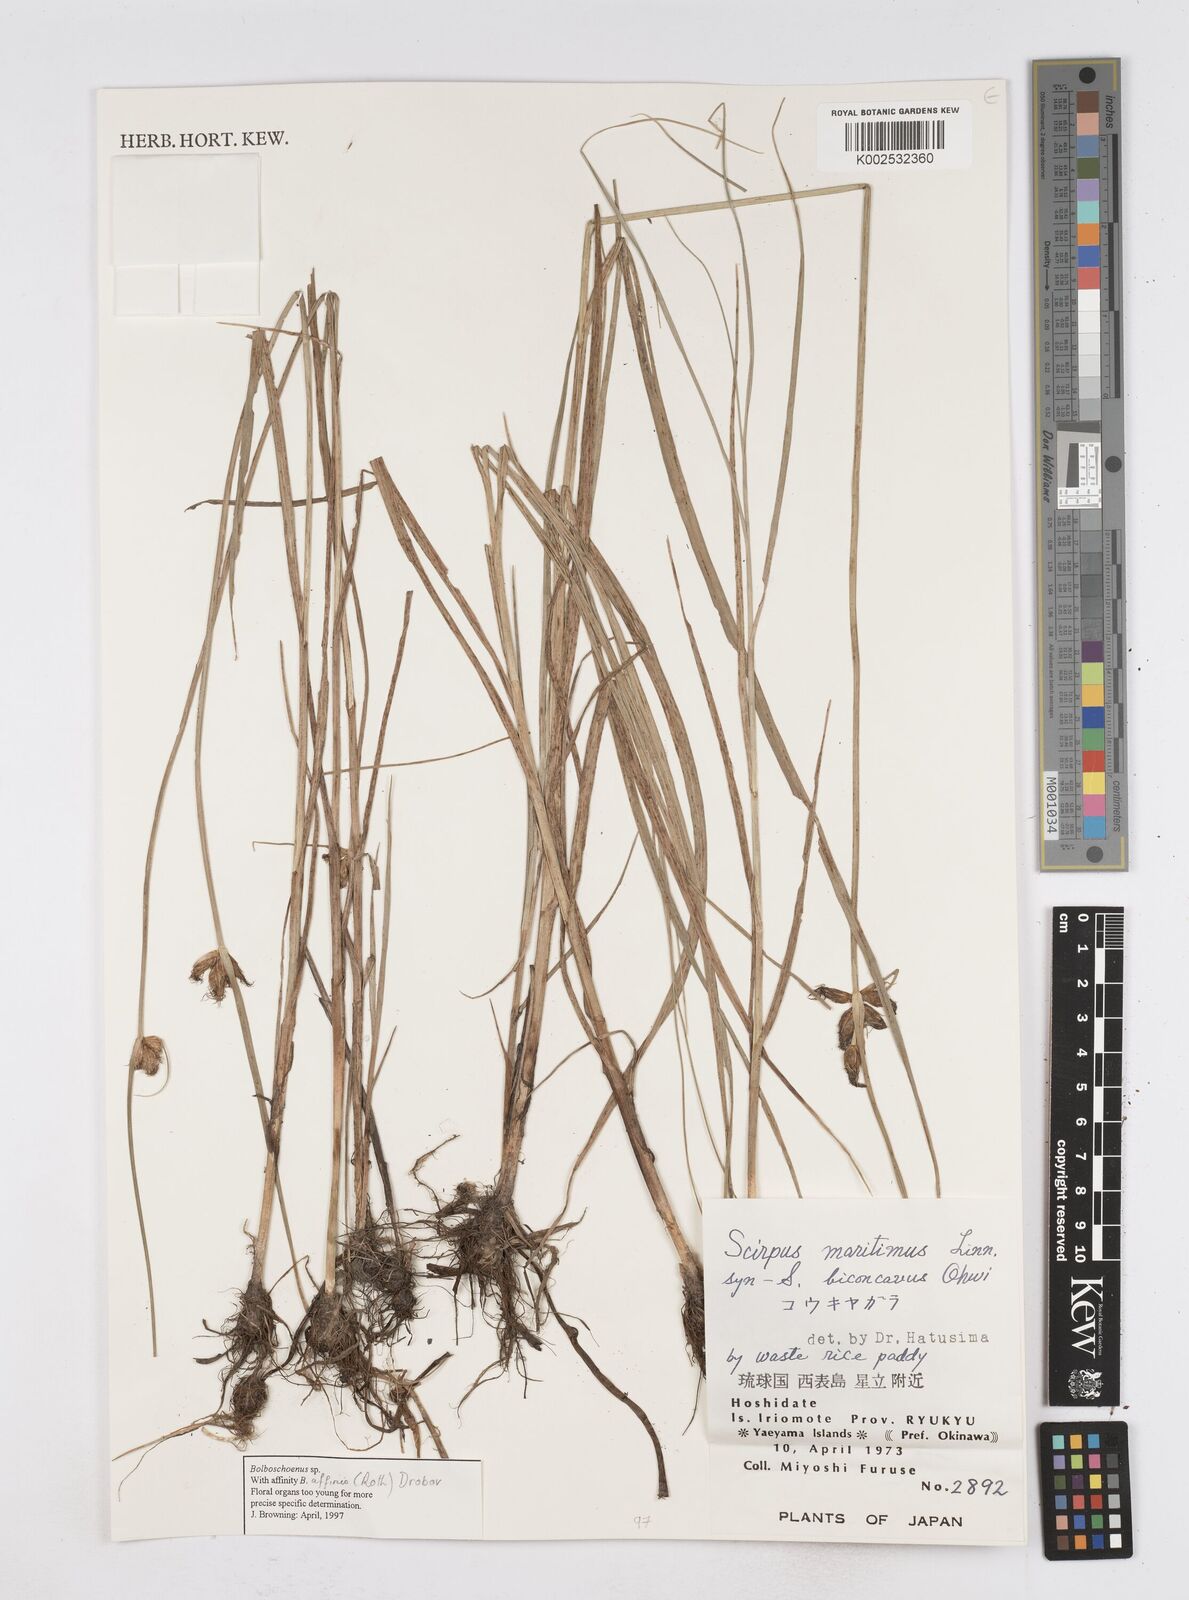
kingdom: Plantae
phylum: Tracheophyta
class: Liliopsida
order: Poales
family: Cyperaceae
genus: Bolboschoenus
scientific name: Bolboschoenus maritimus
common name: Sea club-rush
